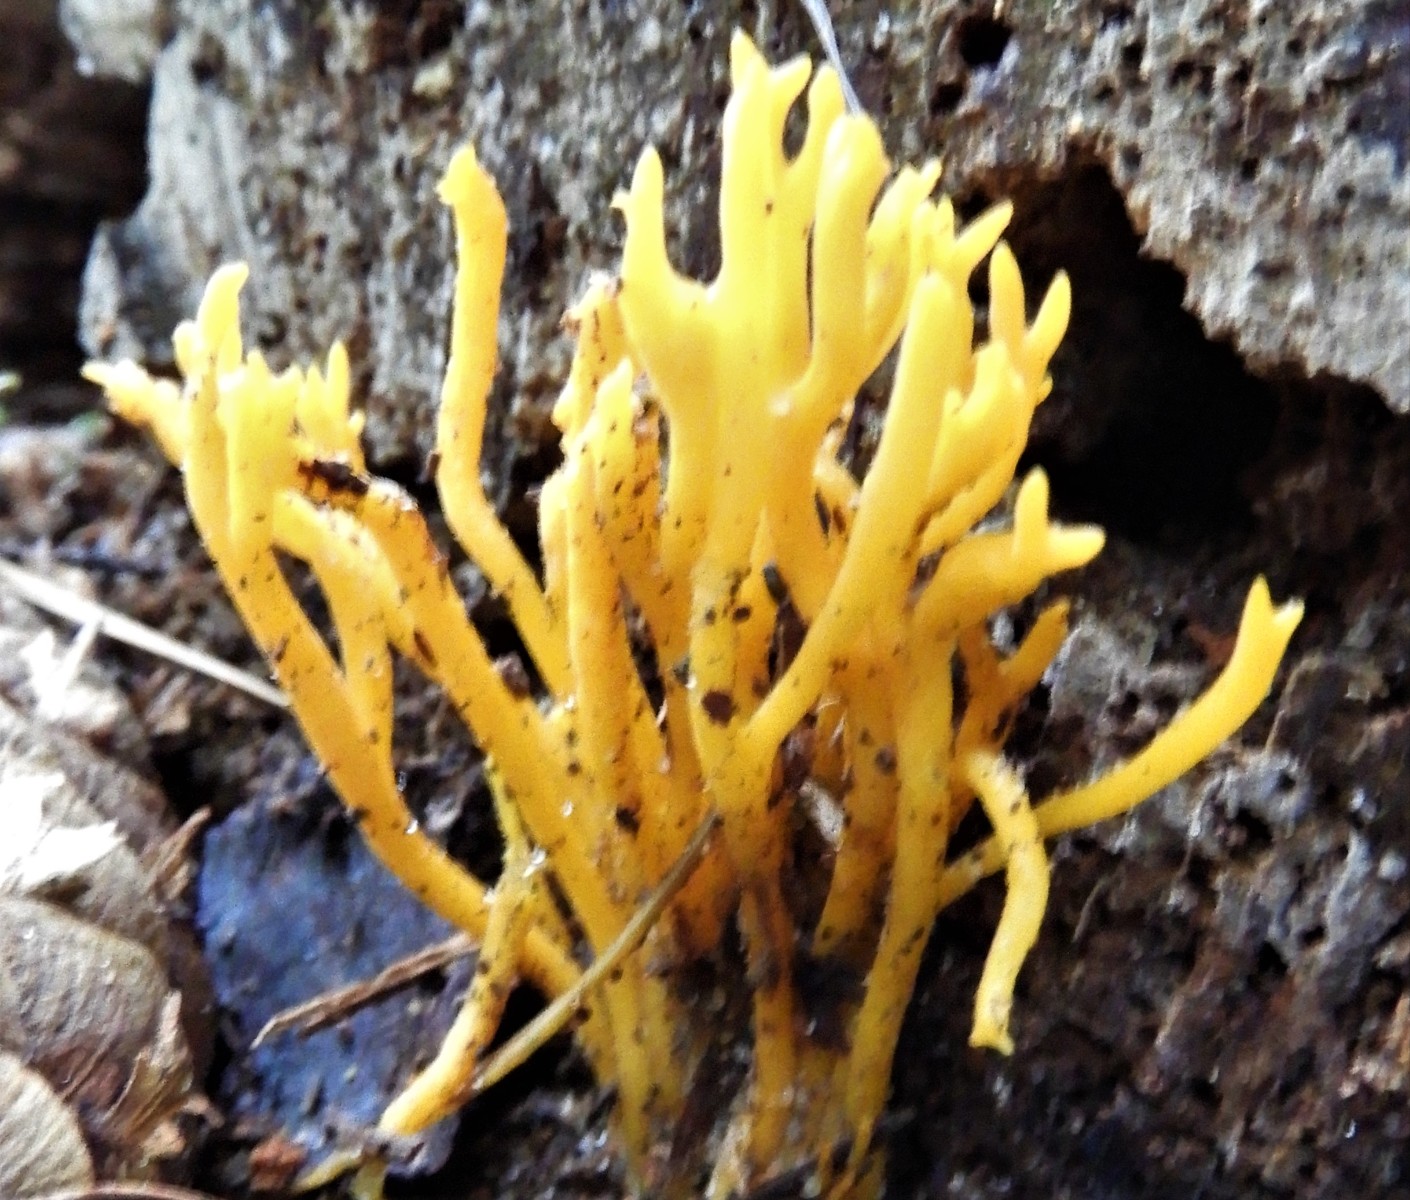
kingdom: Fungi
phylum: Basidiomycota
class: Dacrymycetes
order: Dacrymycetales
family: Dacrymycetaceae
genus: Calocera
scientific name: Calocera viscosa
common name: almindelig guldgaffel
